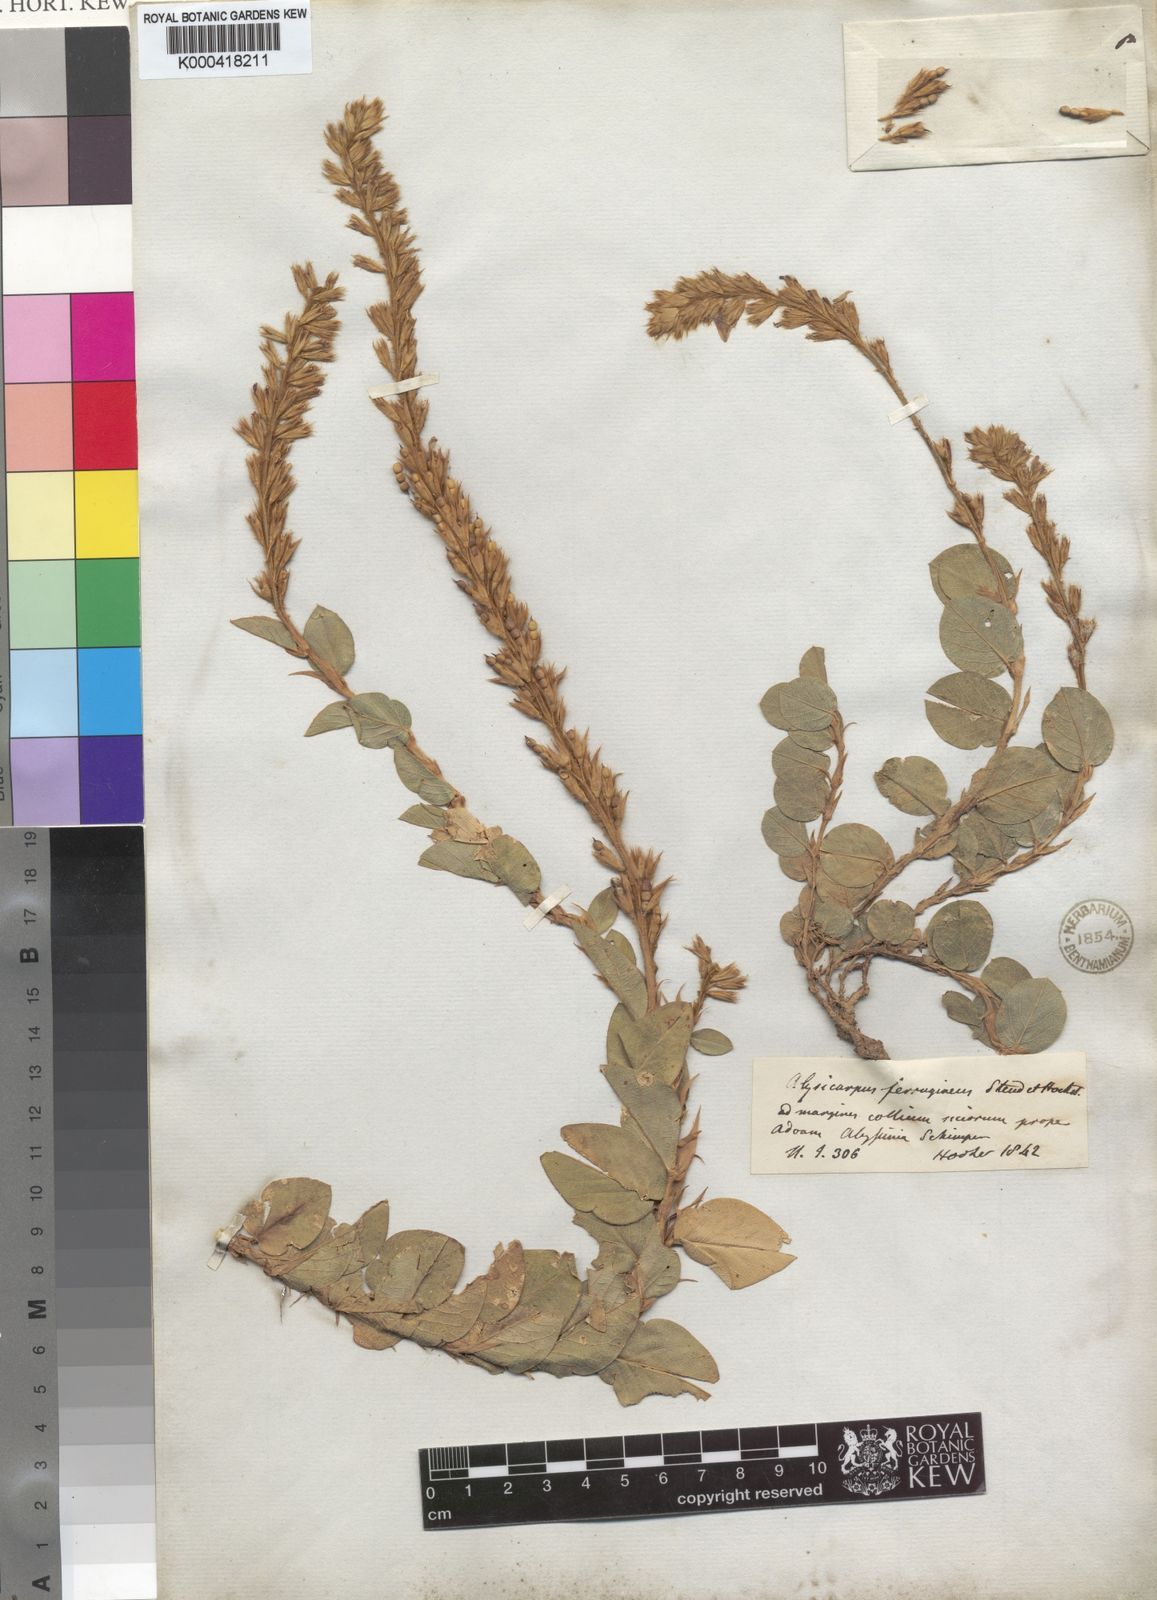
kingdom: Plantae
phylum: Tracheophyta
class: Magnoliopsida
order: Fabales
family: Fabaceae
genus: Alysicarpus
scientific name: Alysicarpus quartinianus
